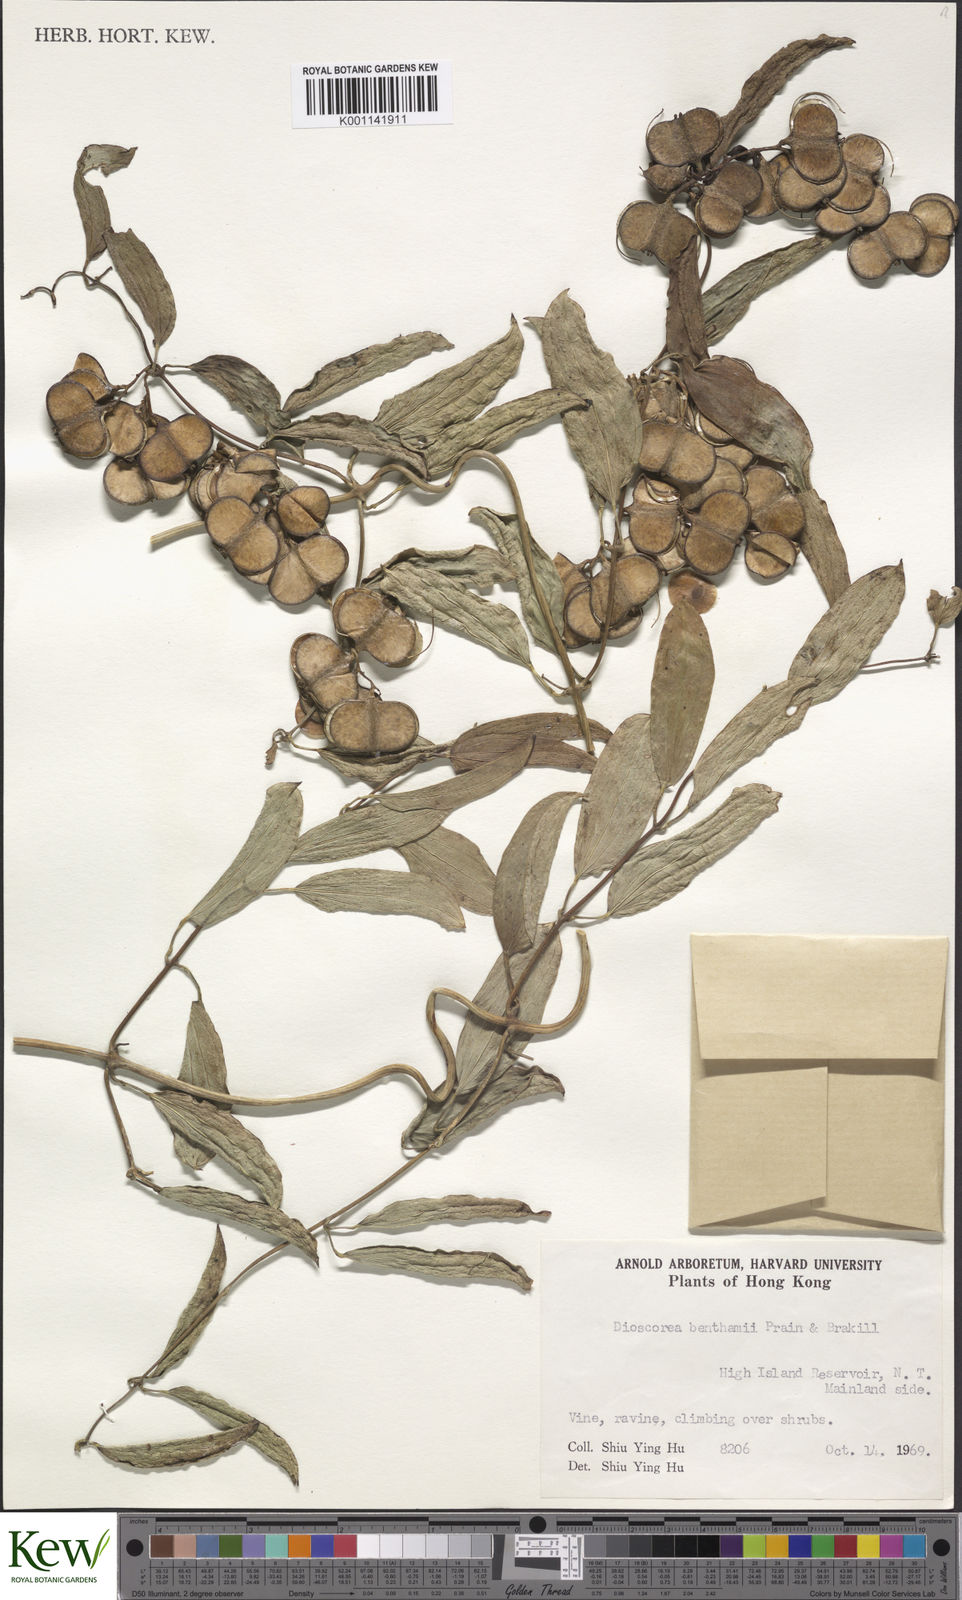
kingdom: Plantae
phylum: Tracheophyta
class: Liliopsida
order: Dioscoreales
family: Dioscoreaceae
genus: Dioscorea
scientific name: Dioscorea benthamii
